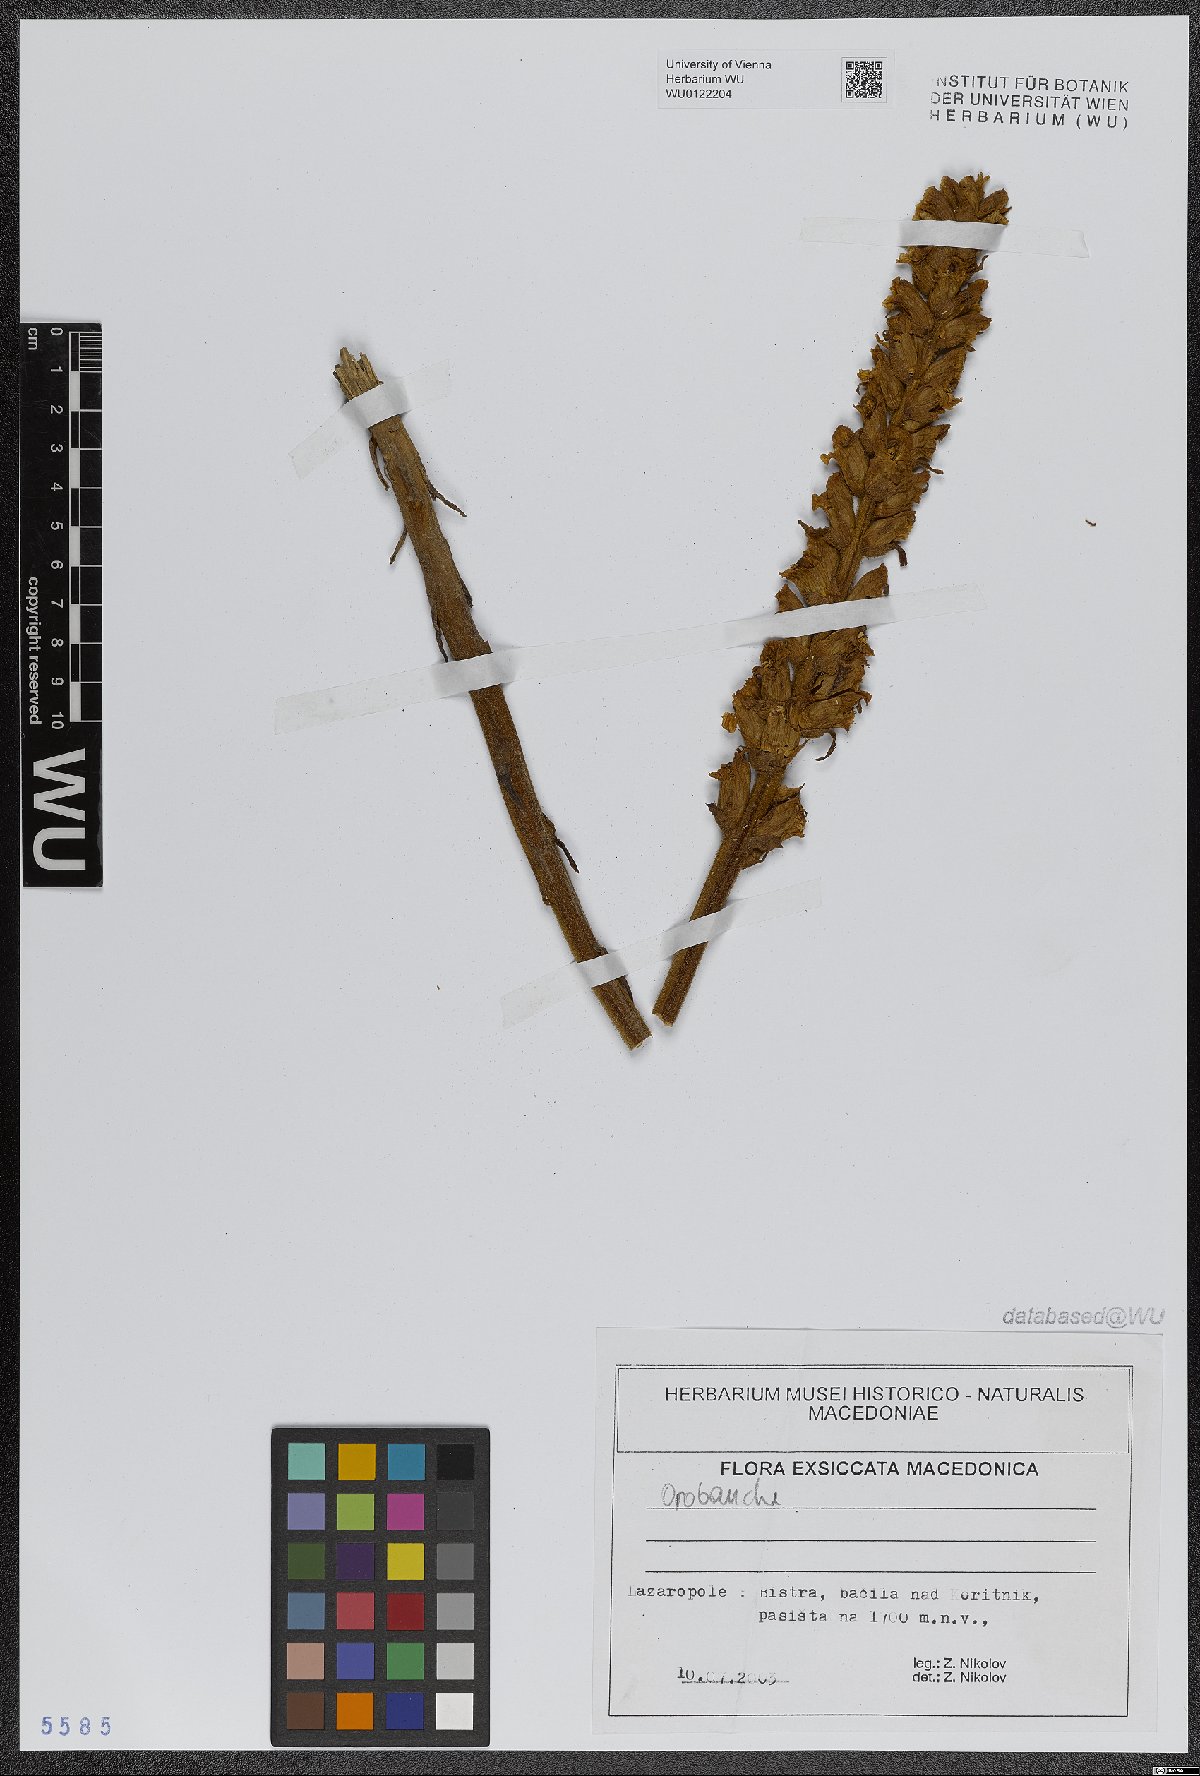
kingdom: Plantae
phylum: Tracheophyta
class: Magnoliopsida
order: Lamiales
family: Orobanchaceae
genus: Orobanche
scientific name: Orobanche
